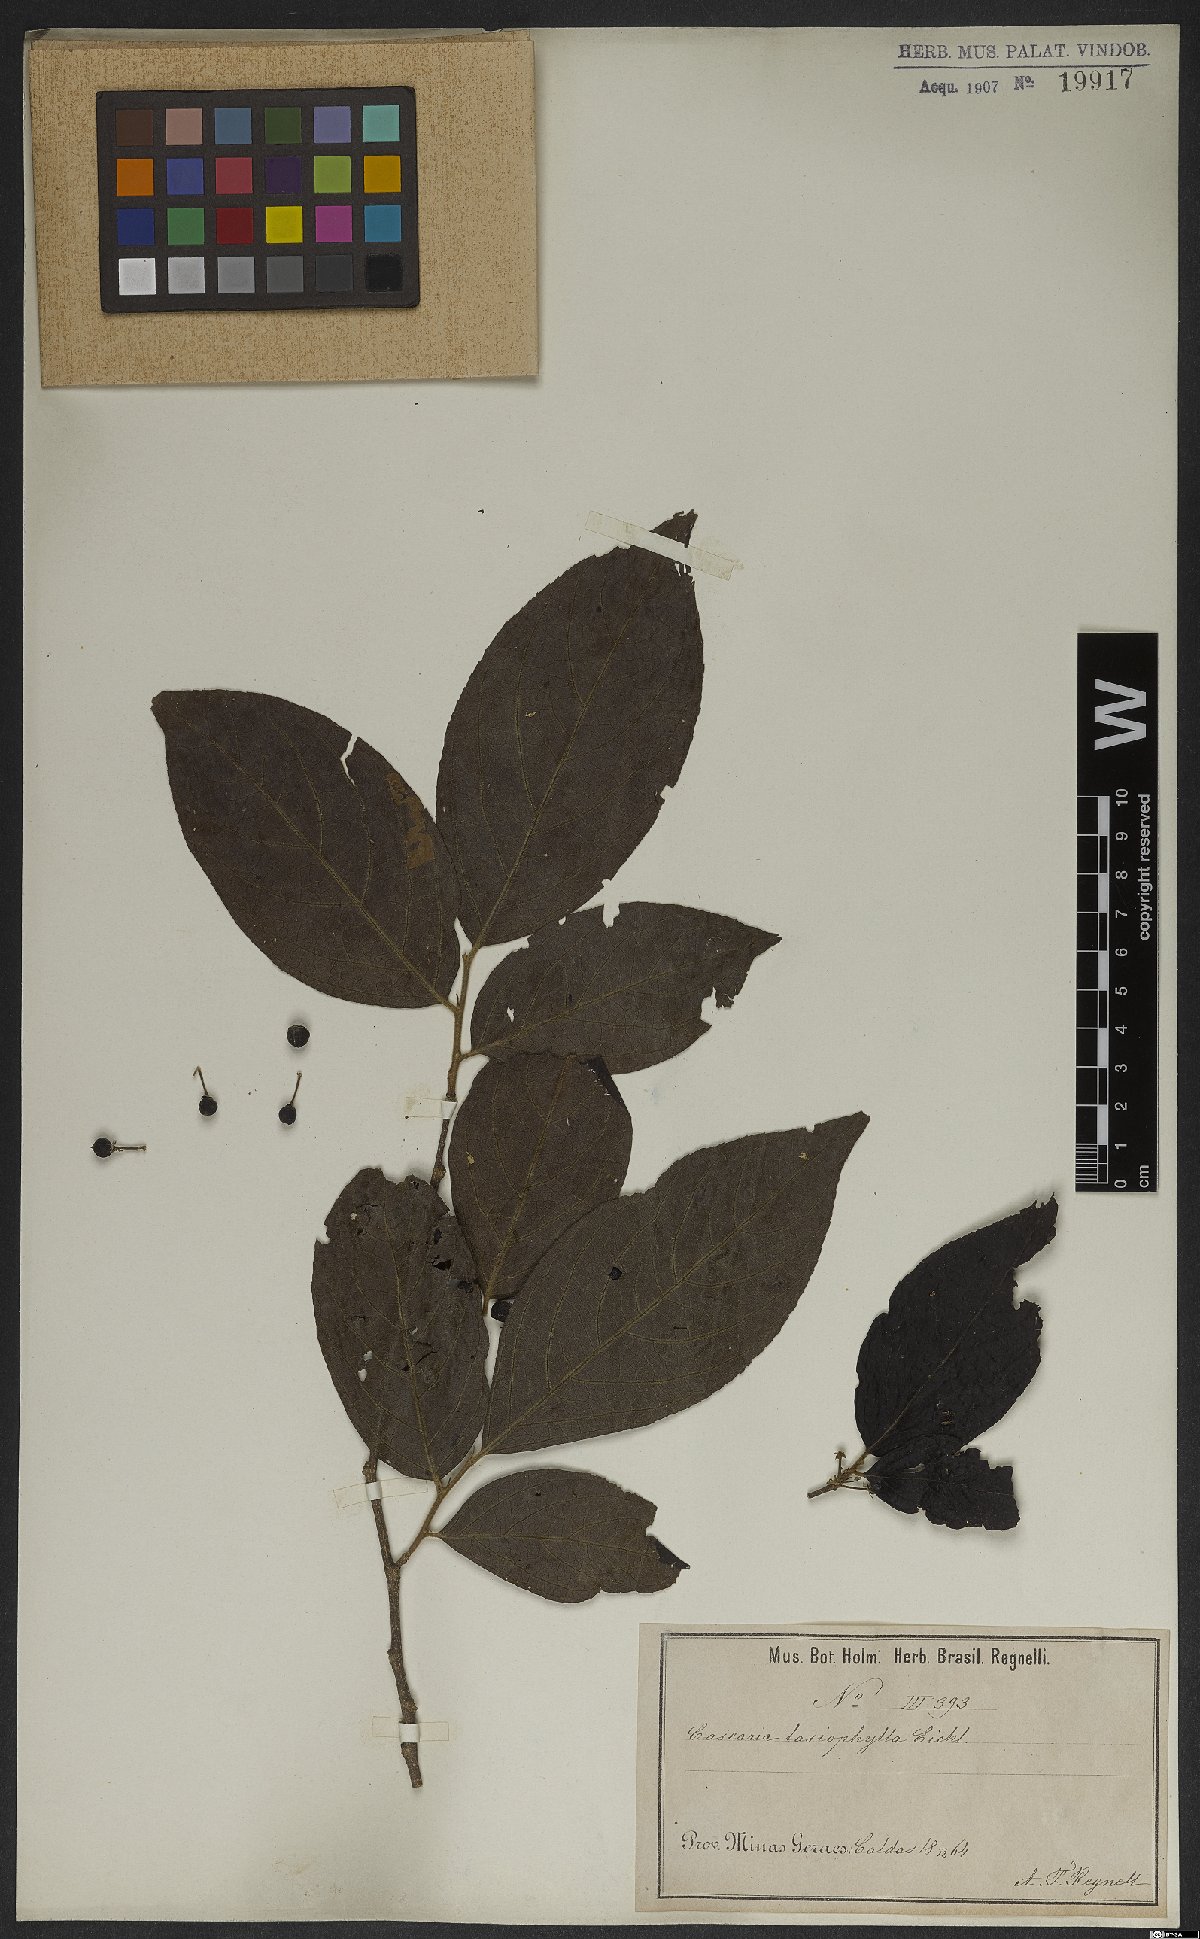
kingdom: Plantae
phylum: Tracheophyta
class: Magnoliopsida
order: Malpighiales
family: Salicaceae
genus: Casearia
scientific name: Casearia lasiophylla
